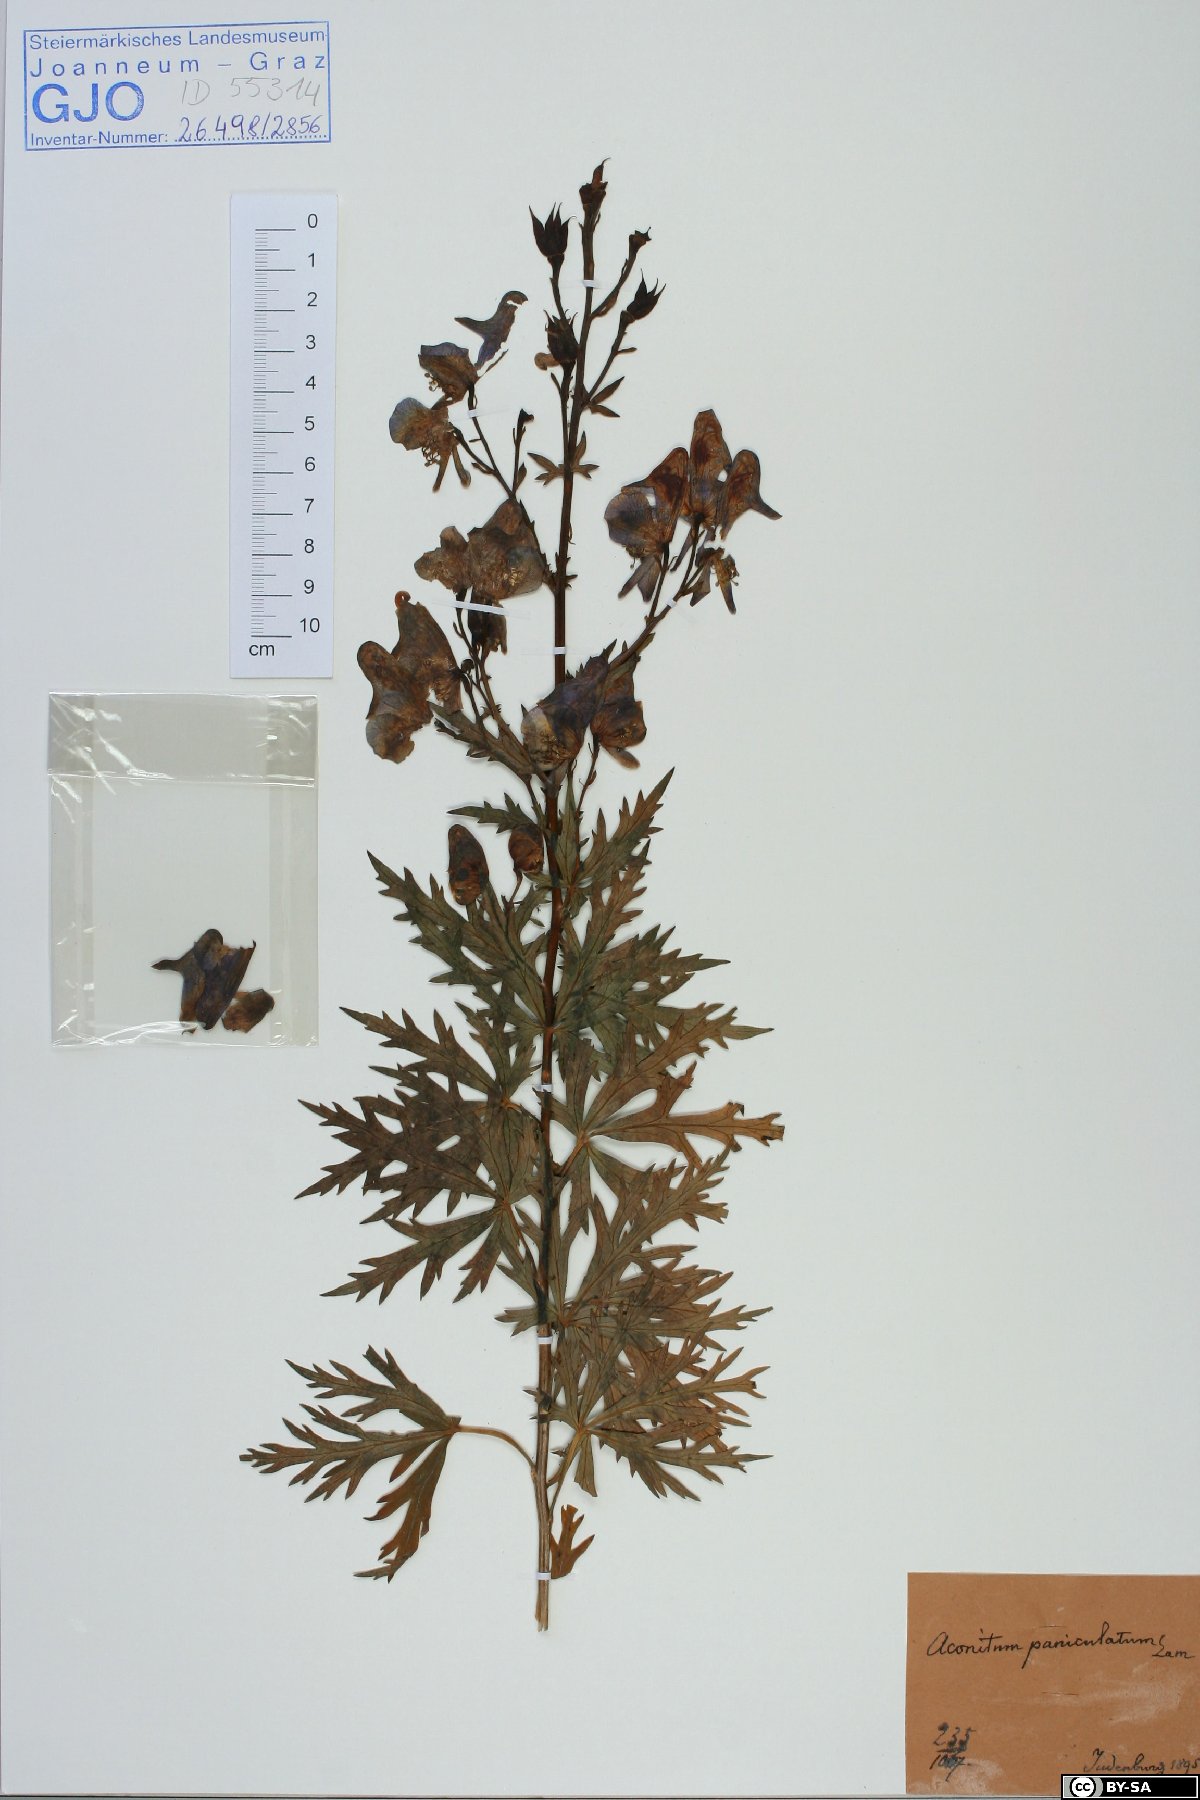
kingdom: Plantae
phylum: Tracheophyta
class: Magnoliopsida
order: Ranunculales
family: Ranunculaceae
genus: Aconitum
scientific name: Aconitum degenii
